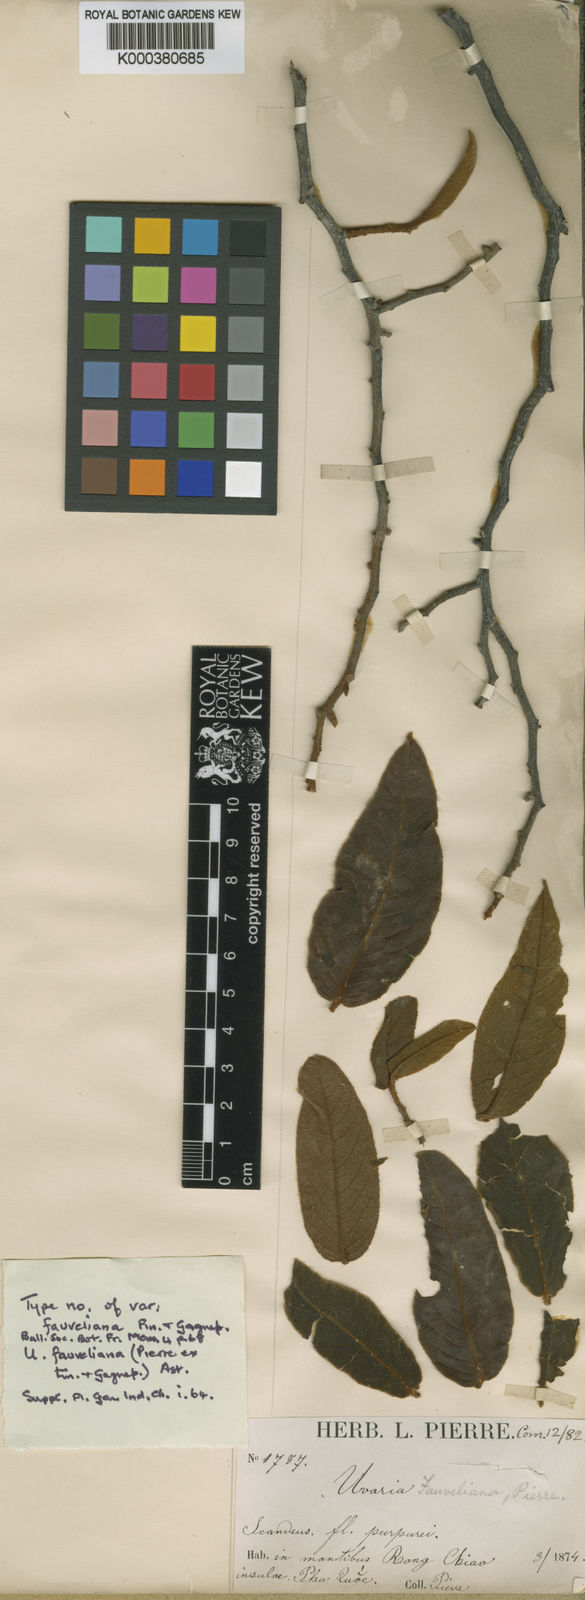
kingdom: Plantae
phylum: Tracheophyta
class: Magnoliopsida
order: Magnoliales
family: Annonaceae
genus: Uvaria
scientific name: Uvaria hamiltonii
